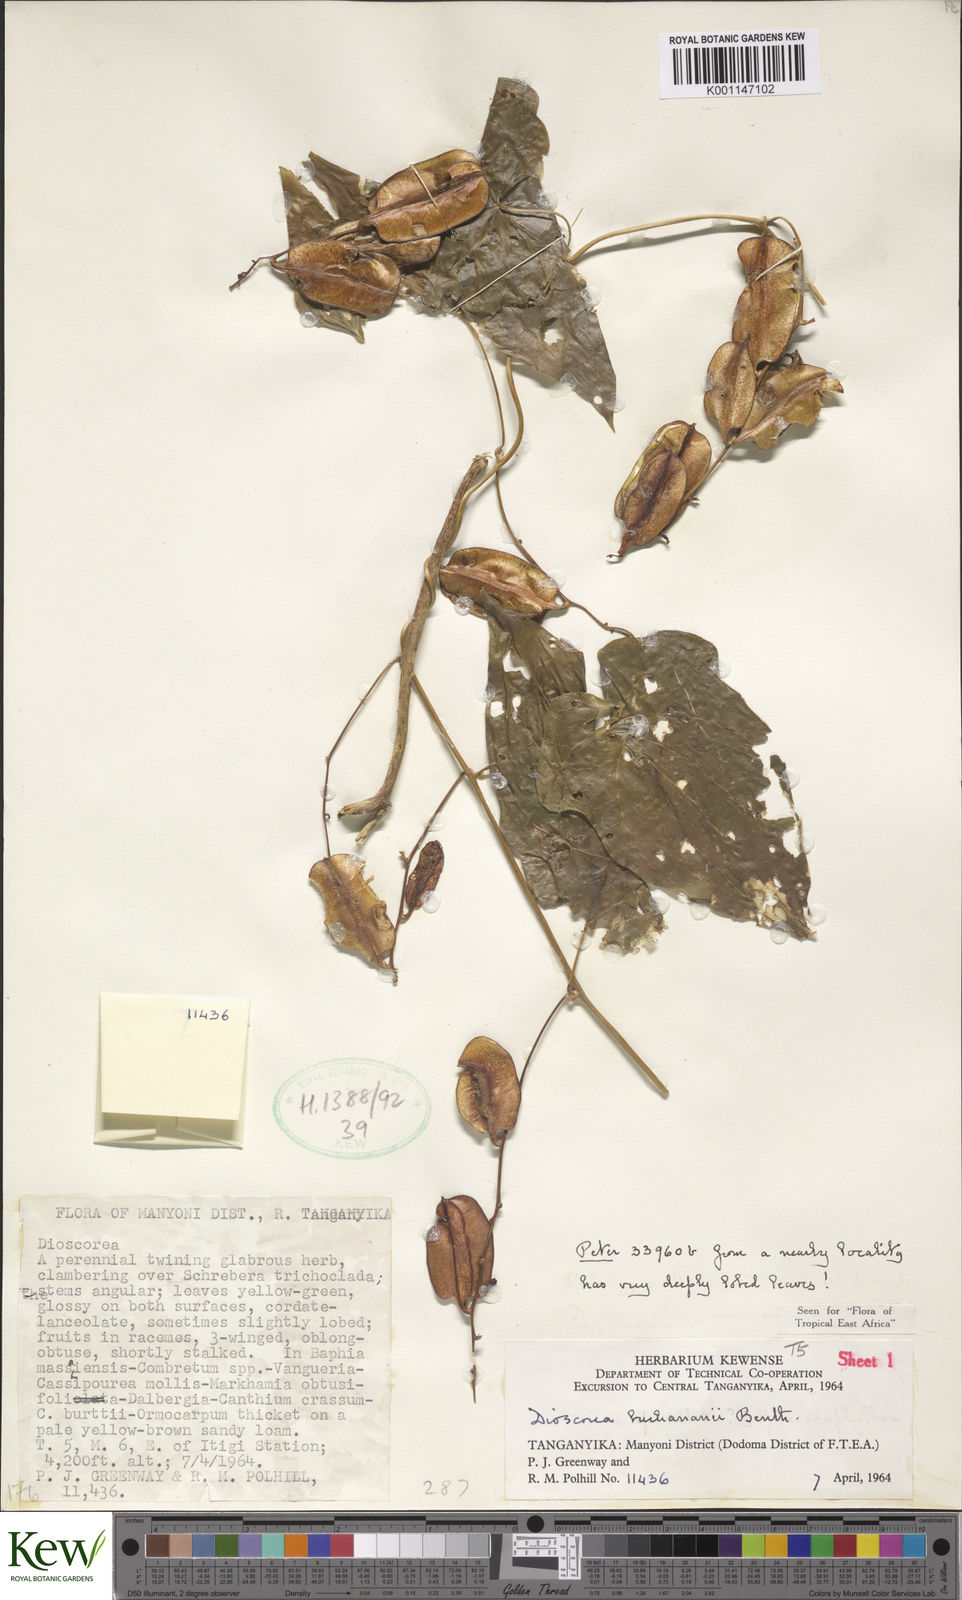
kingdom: Plantae
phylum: Tracheophyta
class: Liliopsida
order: Dioscoreales
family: Dioscoreaceae
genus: Dioscorea
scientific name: Dioscorea buchananii
